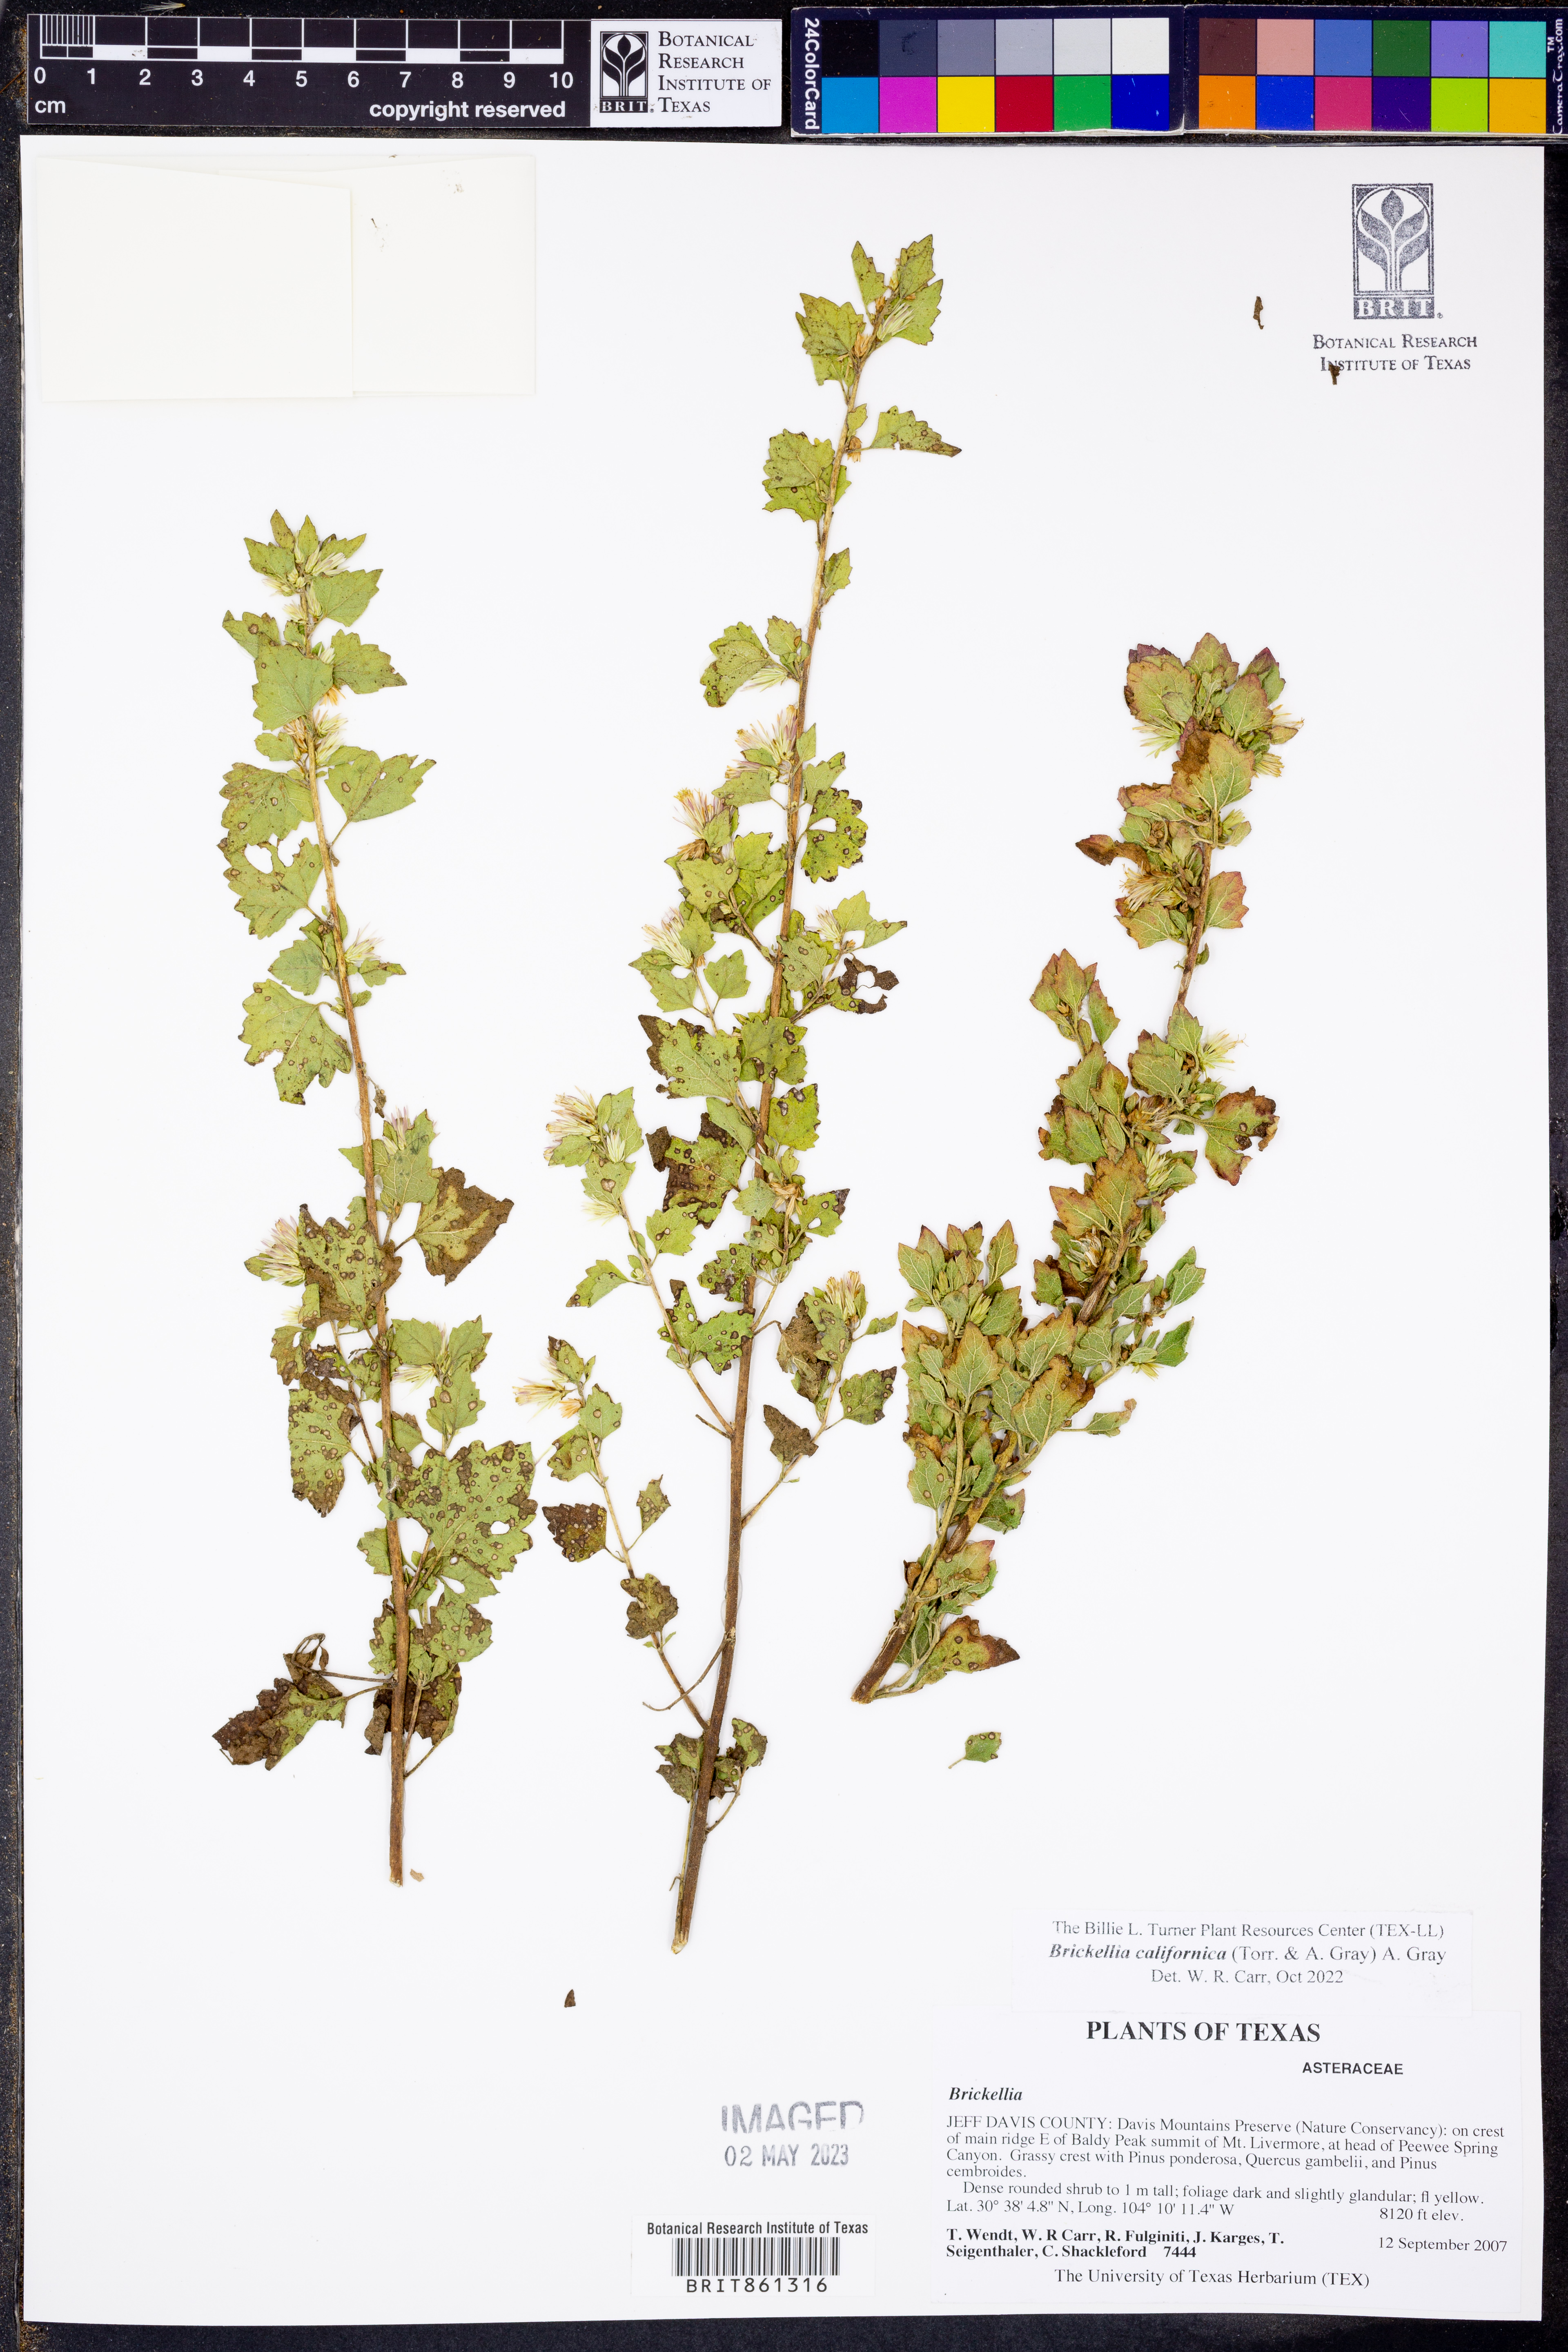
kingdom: Plantae
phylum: Tracheophyta
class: Magnoliopsida
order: Asterales
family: Asteraceae
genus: Brickellia
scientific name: Brickellia californica
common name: California brickellbush
